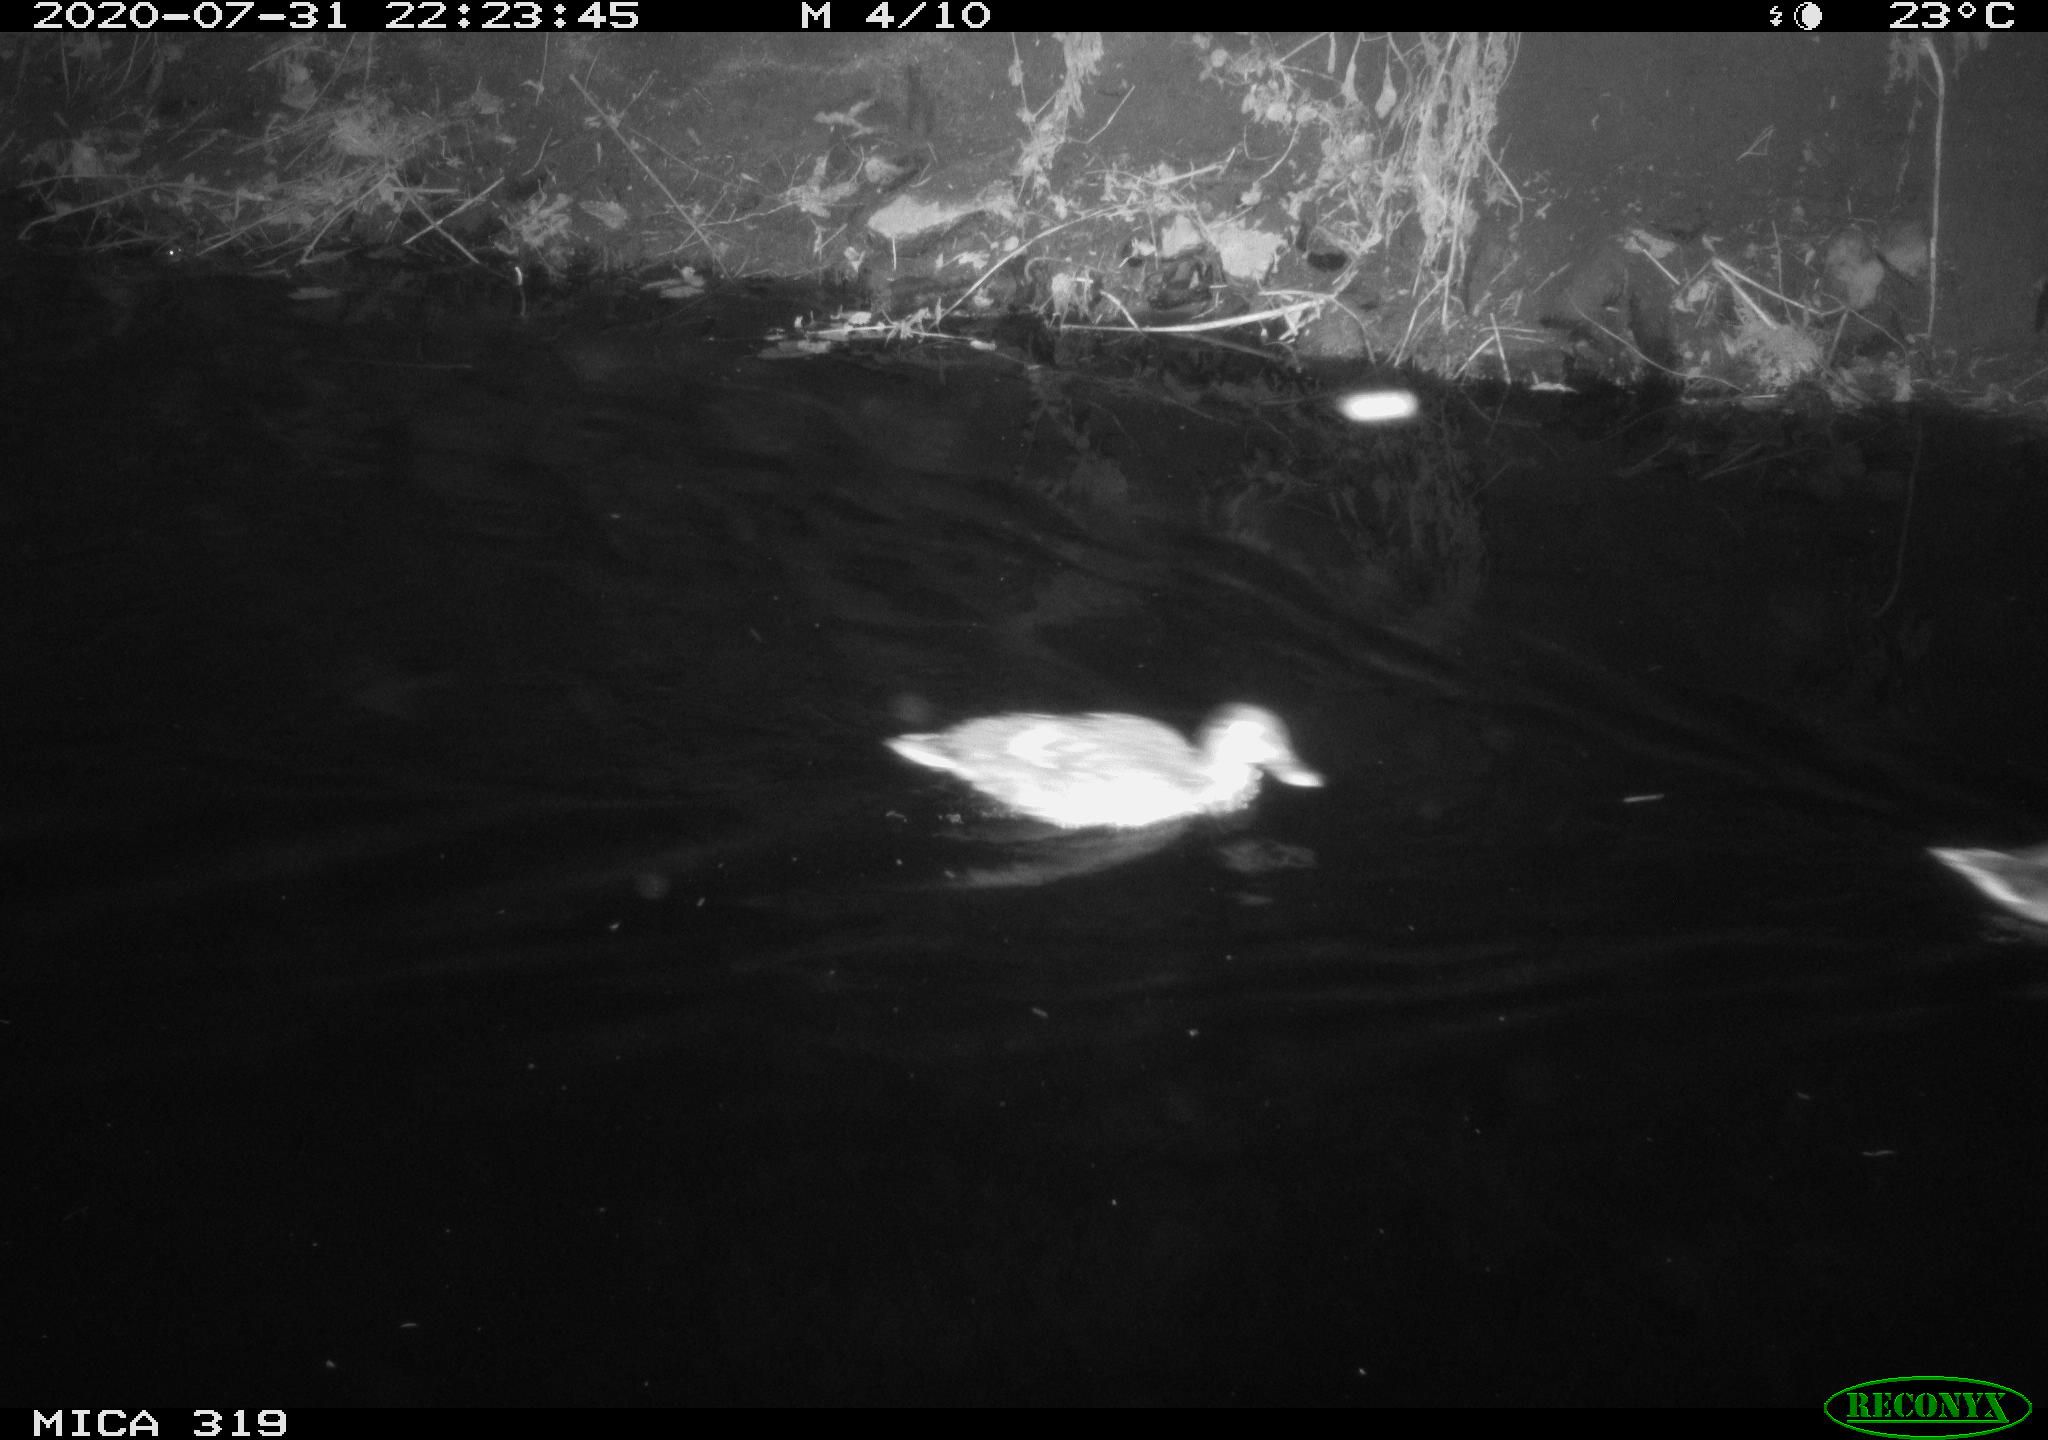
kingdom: Animalia
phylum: Chordata
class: Aves
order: Anseriformes
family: Anatidae
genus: Anas
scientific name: Anas platyrhynchos
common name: Mallard
